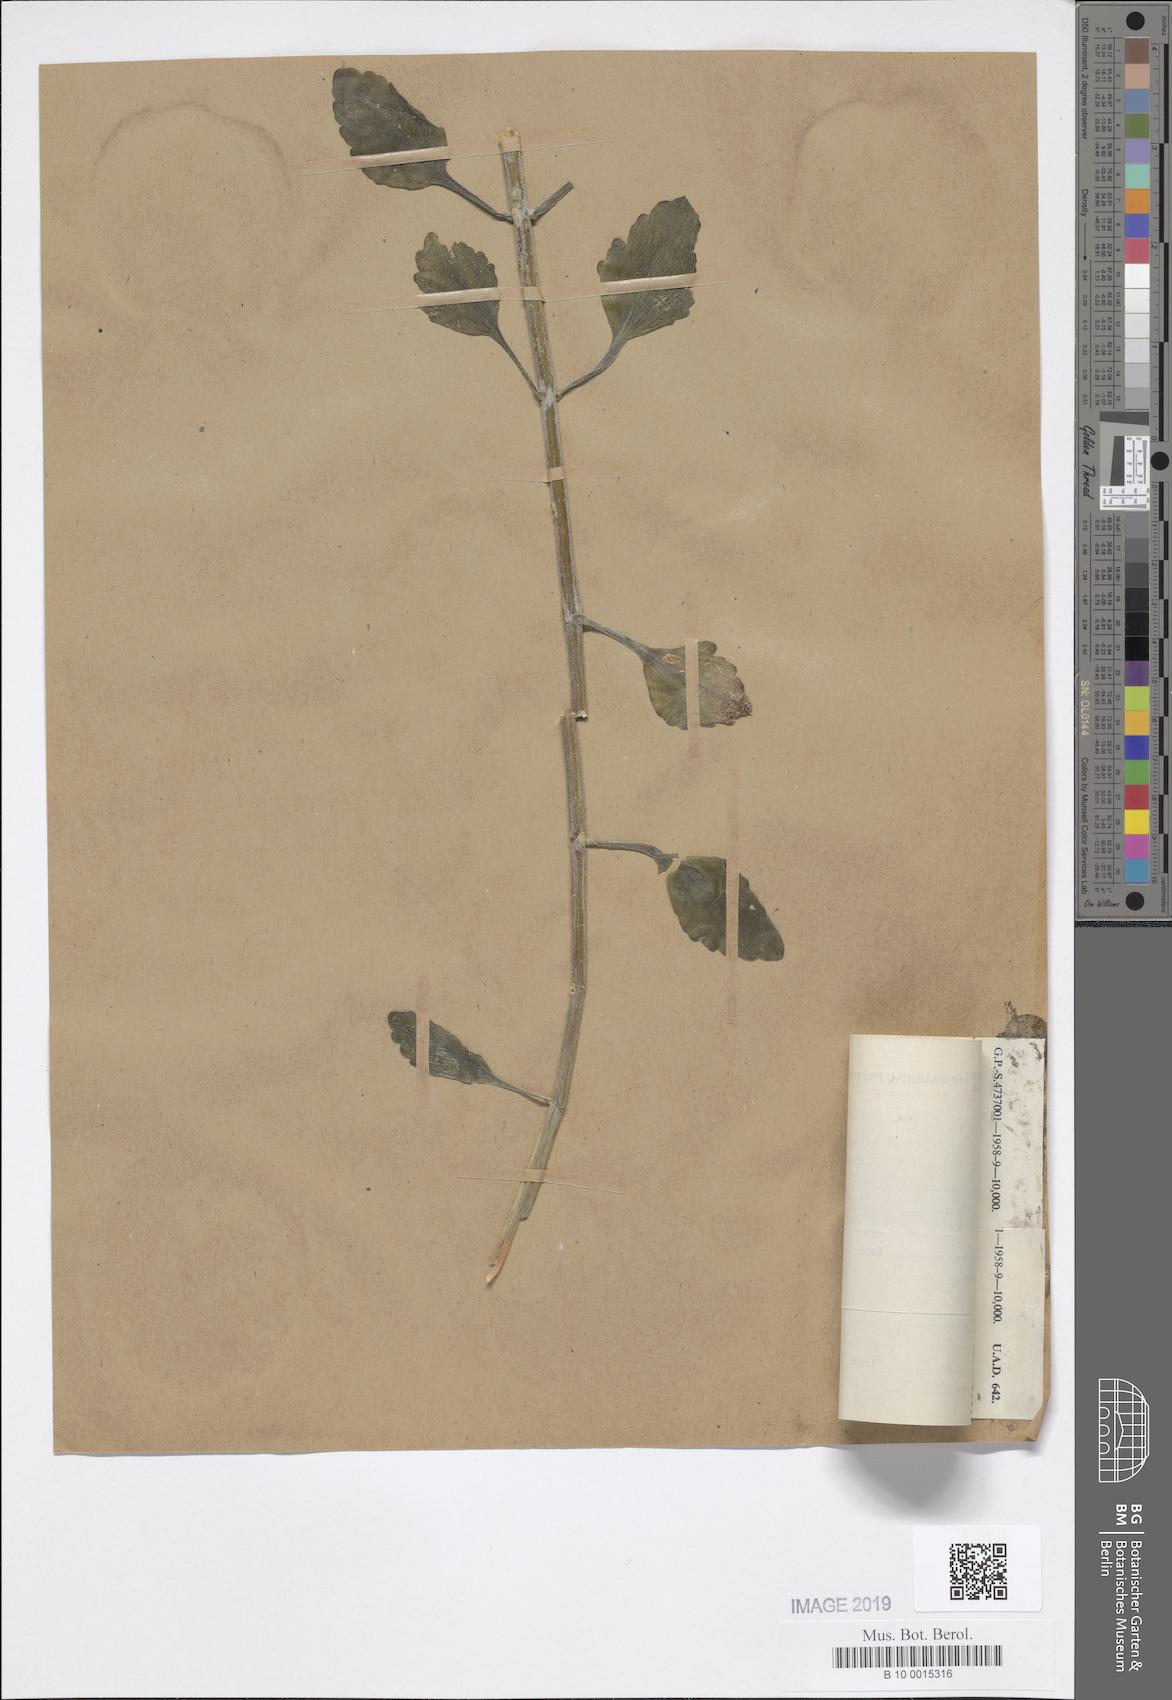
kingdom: Plantae
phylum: Tracheophyta
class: Magnoliopsida
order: Saxifragales
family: Crassulaceae
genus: Kalanchoe
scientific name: Kalanchoe rotundifolia
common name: Common kalanchoe
